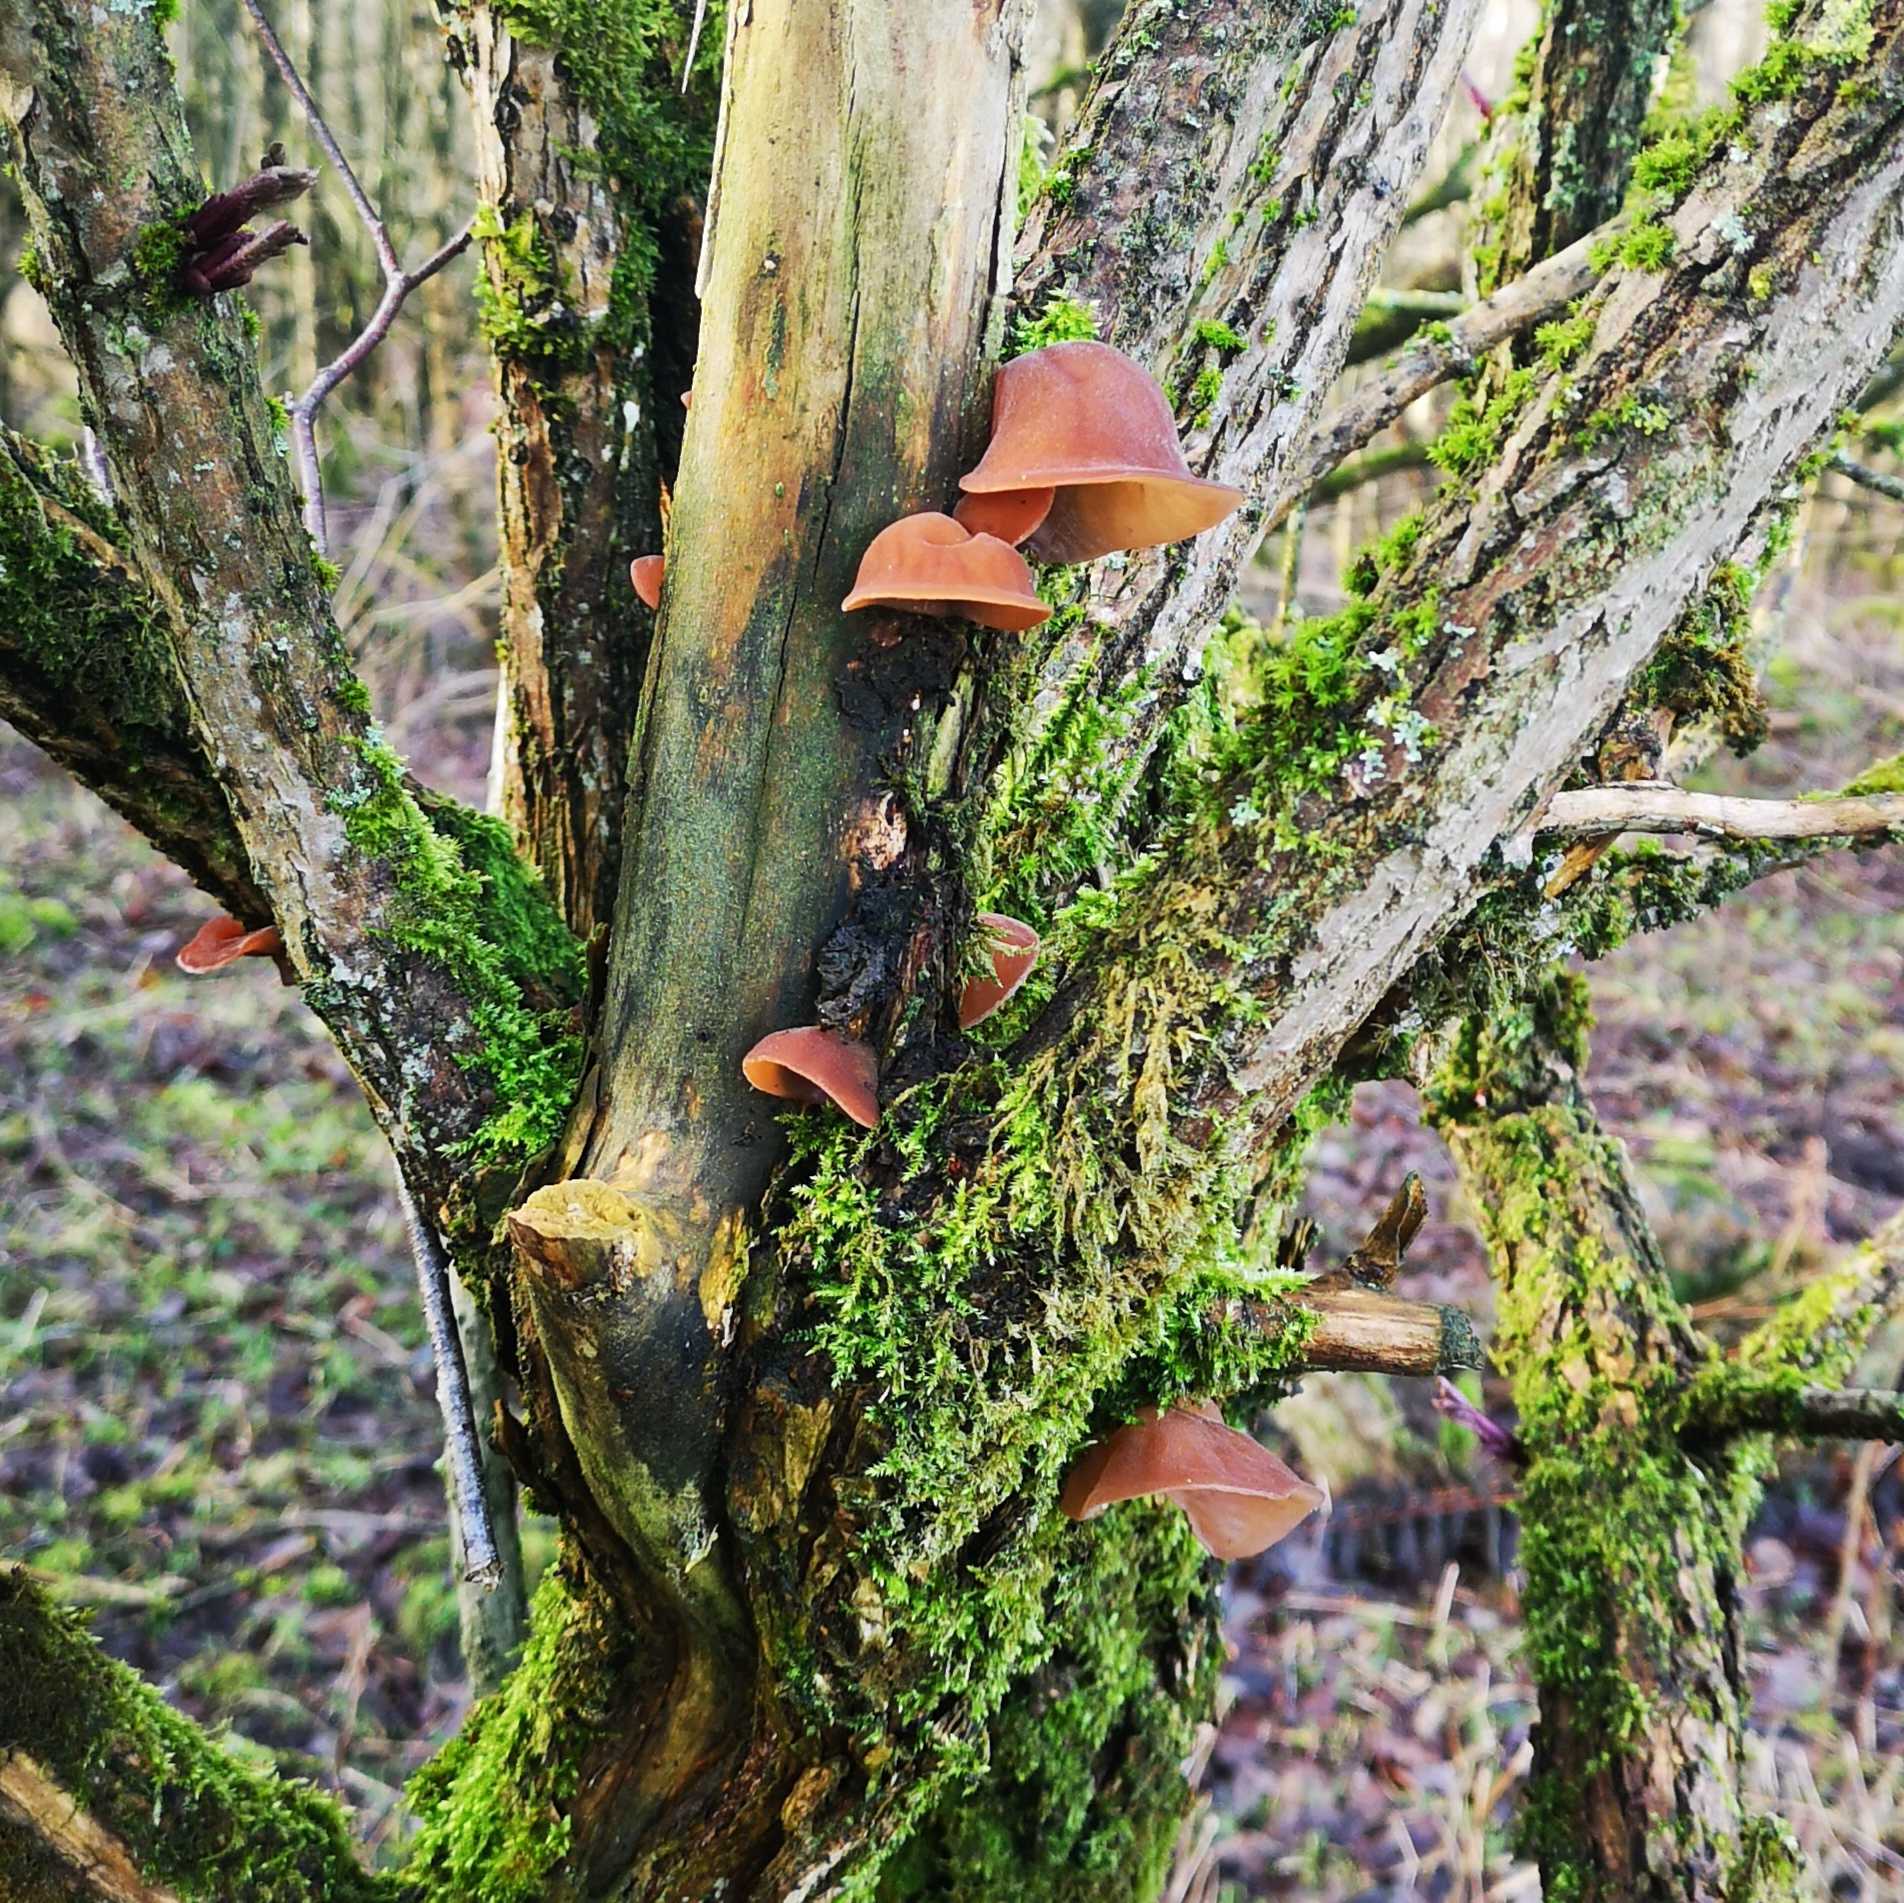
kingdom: Fungi
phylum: Basidiomycota
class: Agaricomycetes
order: Auriculariales
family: Auriculariaceae
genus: Auricularia
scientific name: Auricularia auricula-judae
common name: Almindelig judasøre
